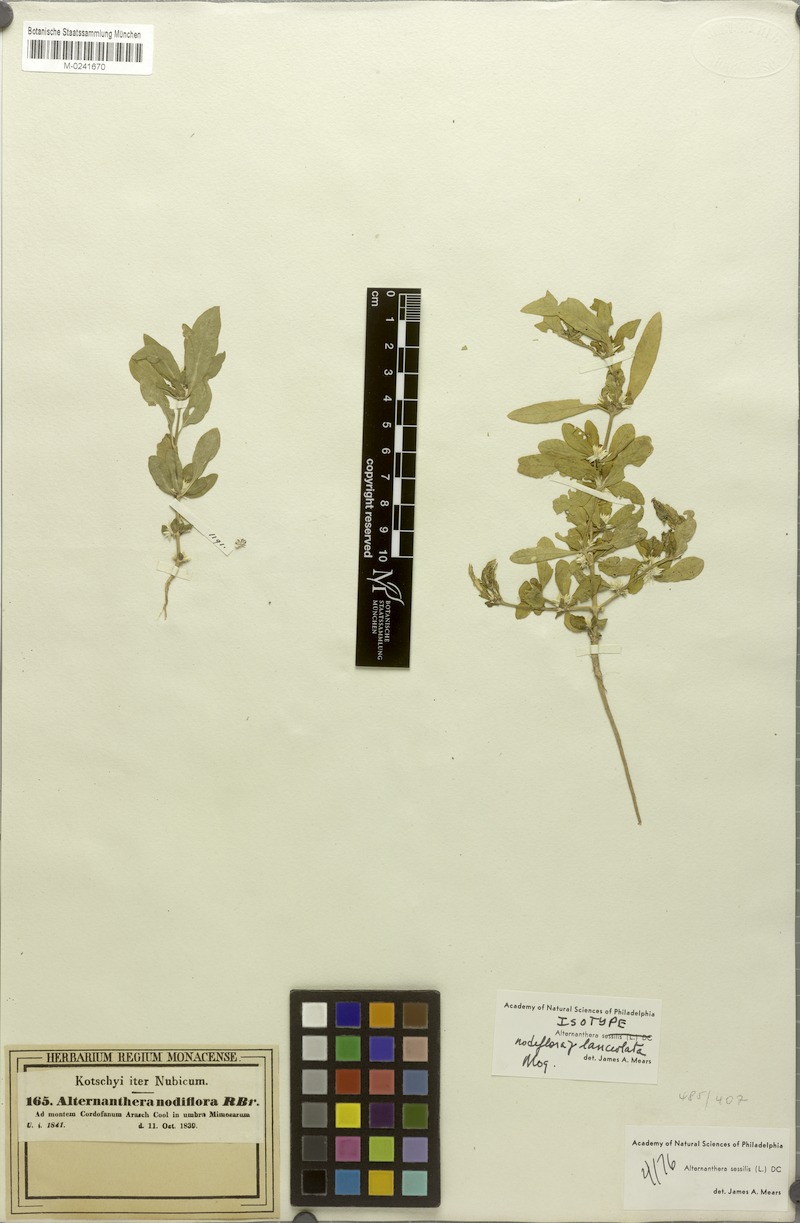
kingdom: Plantae
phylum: Tracheophyta
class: Magnoliopsida
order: Caryophyllales
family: Amaranthaceae
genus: Alternanthera
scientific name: Alternanthera sessilis
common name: Sessile joyweed
